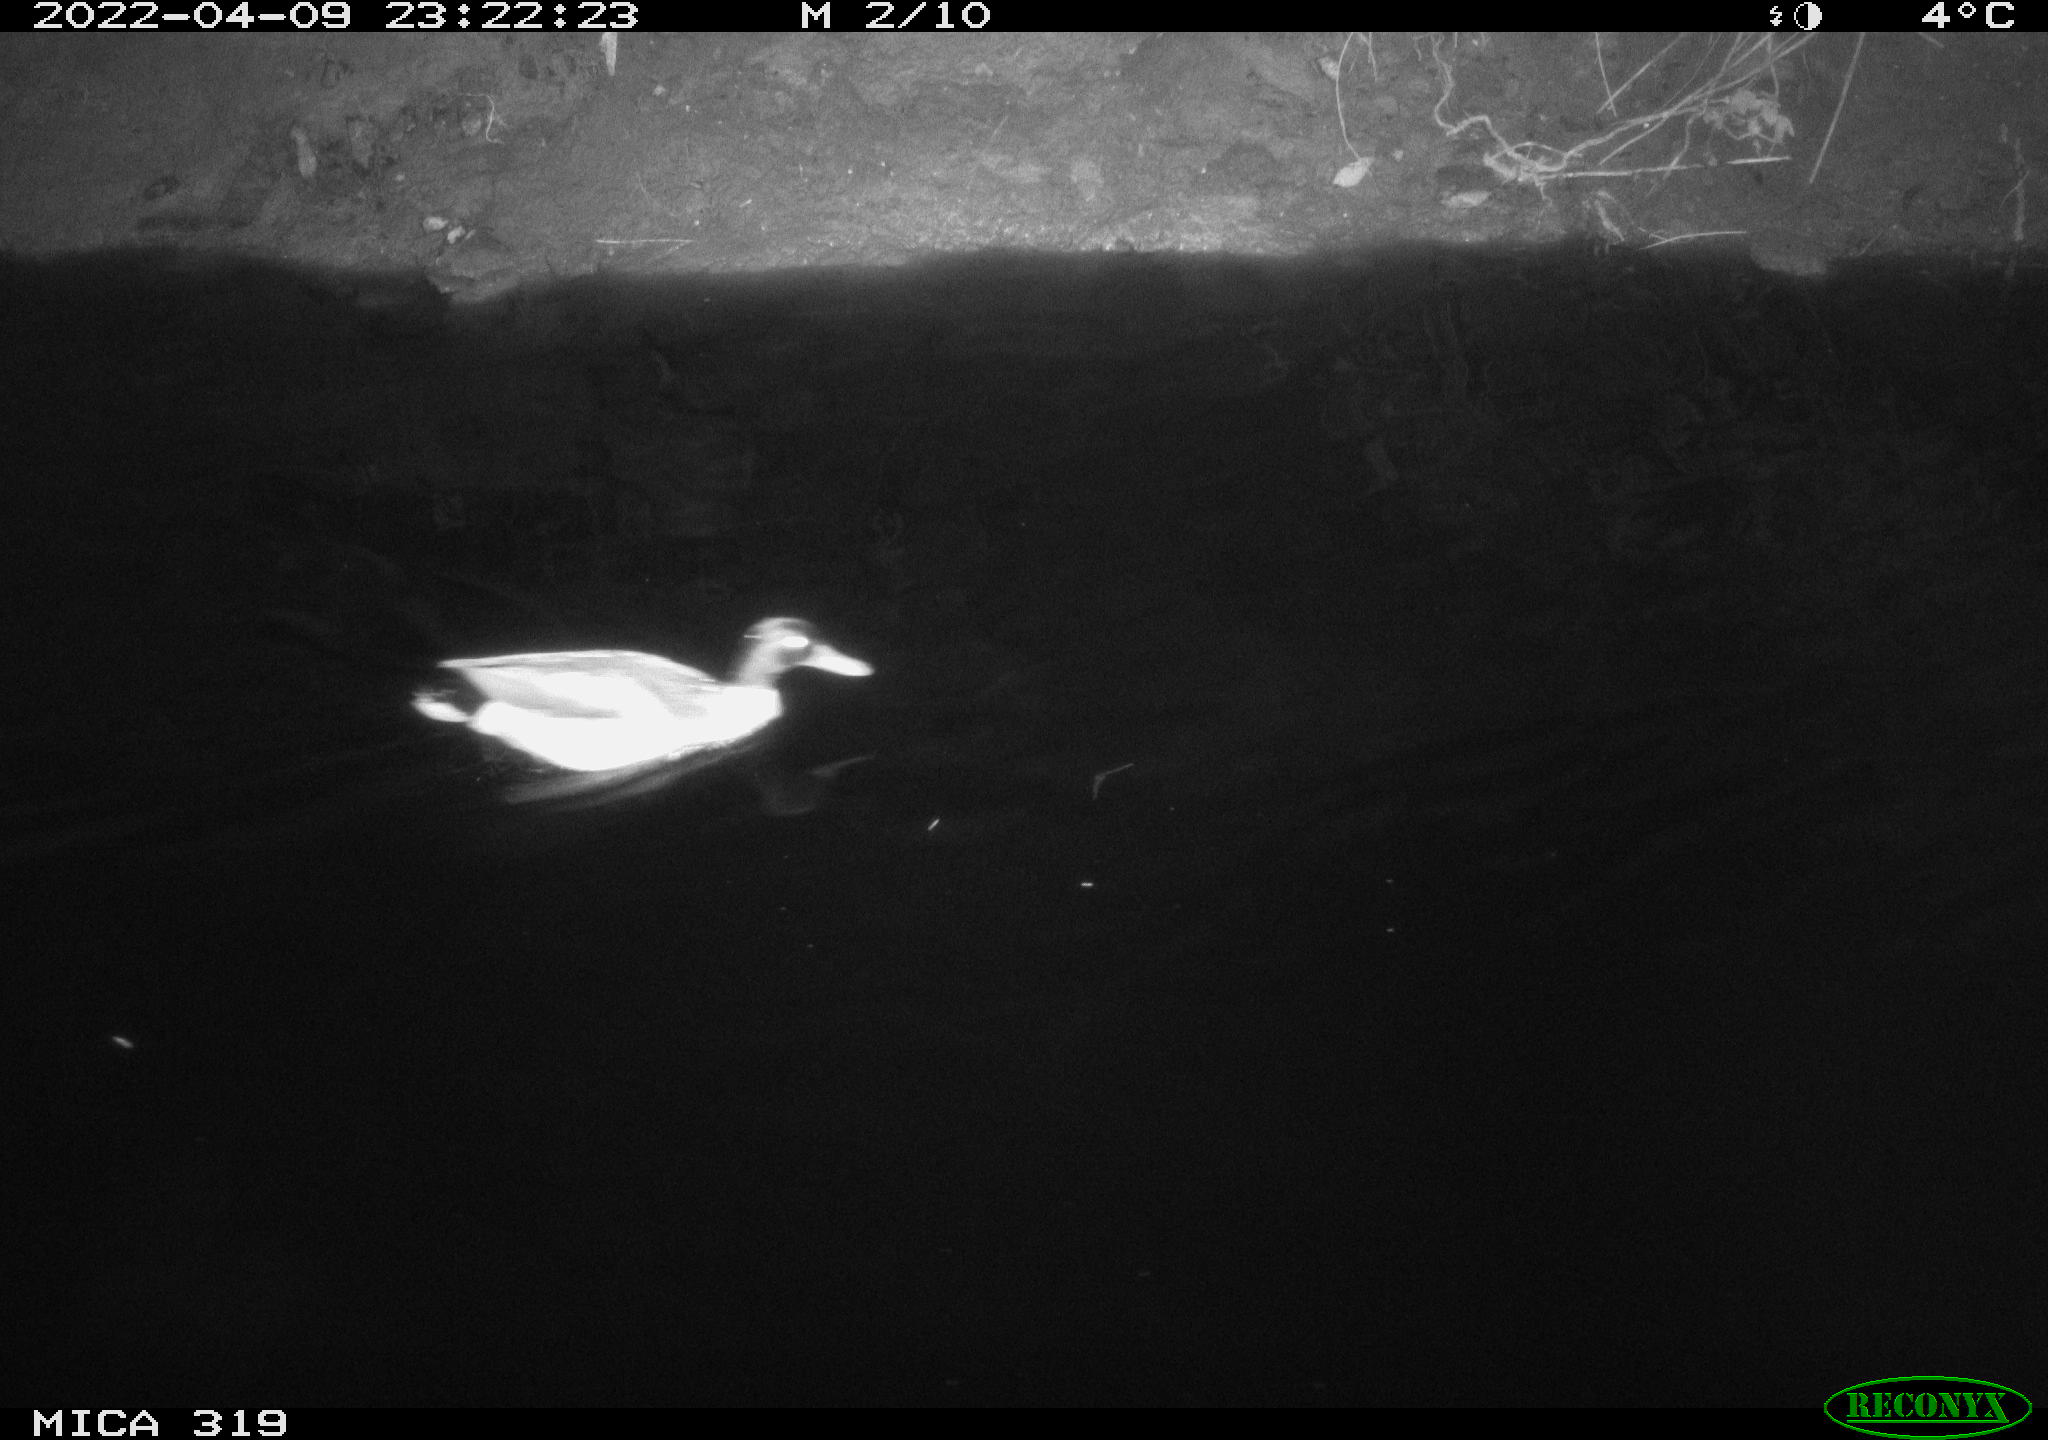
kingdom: Animalia
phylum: Chordata
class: Aves
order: Anseriformes
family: Anatidae
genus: Anas
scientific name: Anas platyrhynchos
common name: Mallard
